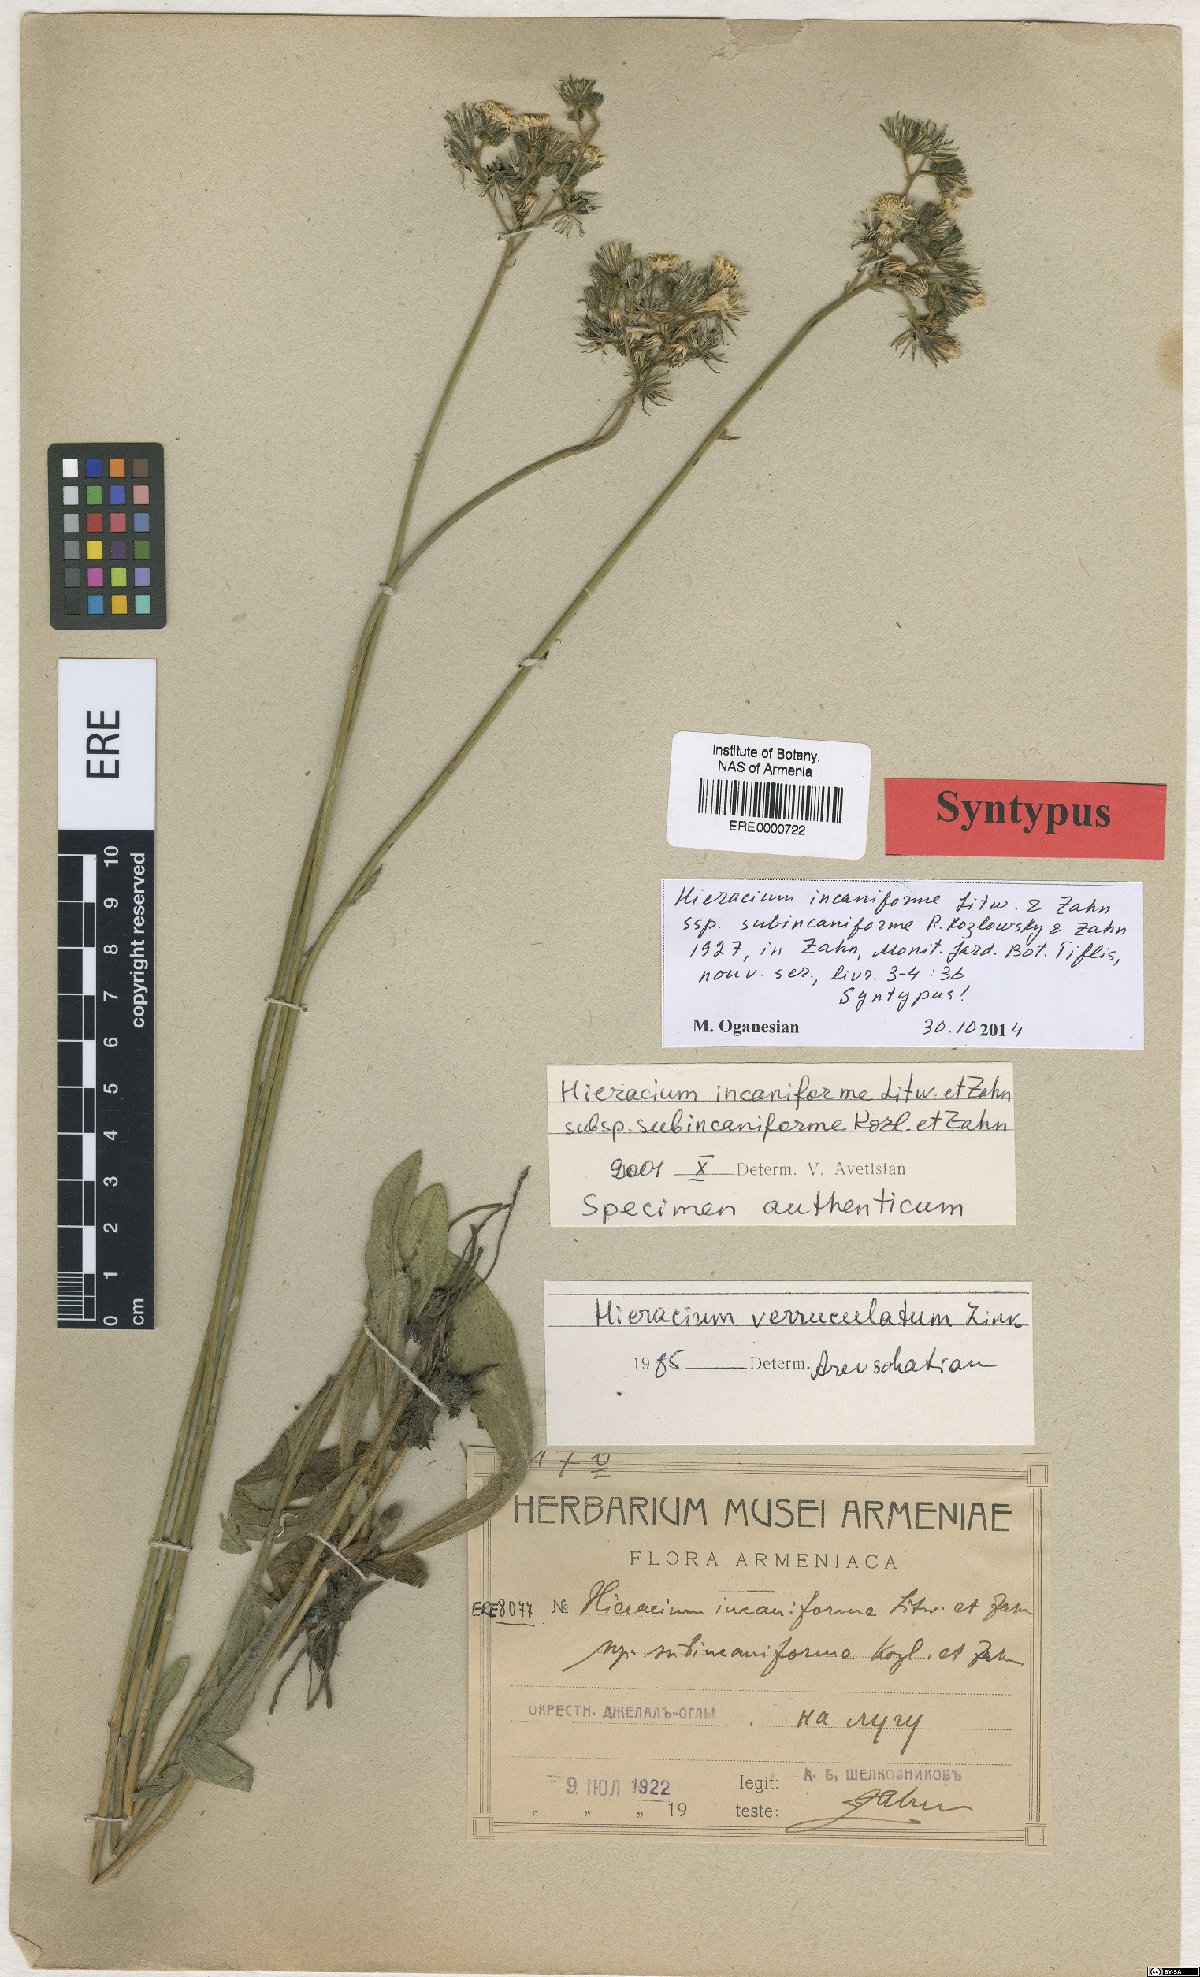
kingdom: Plantae
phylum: Tracheophyta
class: Magnoliopsida
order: Asterales
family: Asteraceae
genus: Pilosella
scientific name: Pilosella sintenisii
